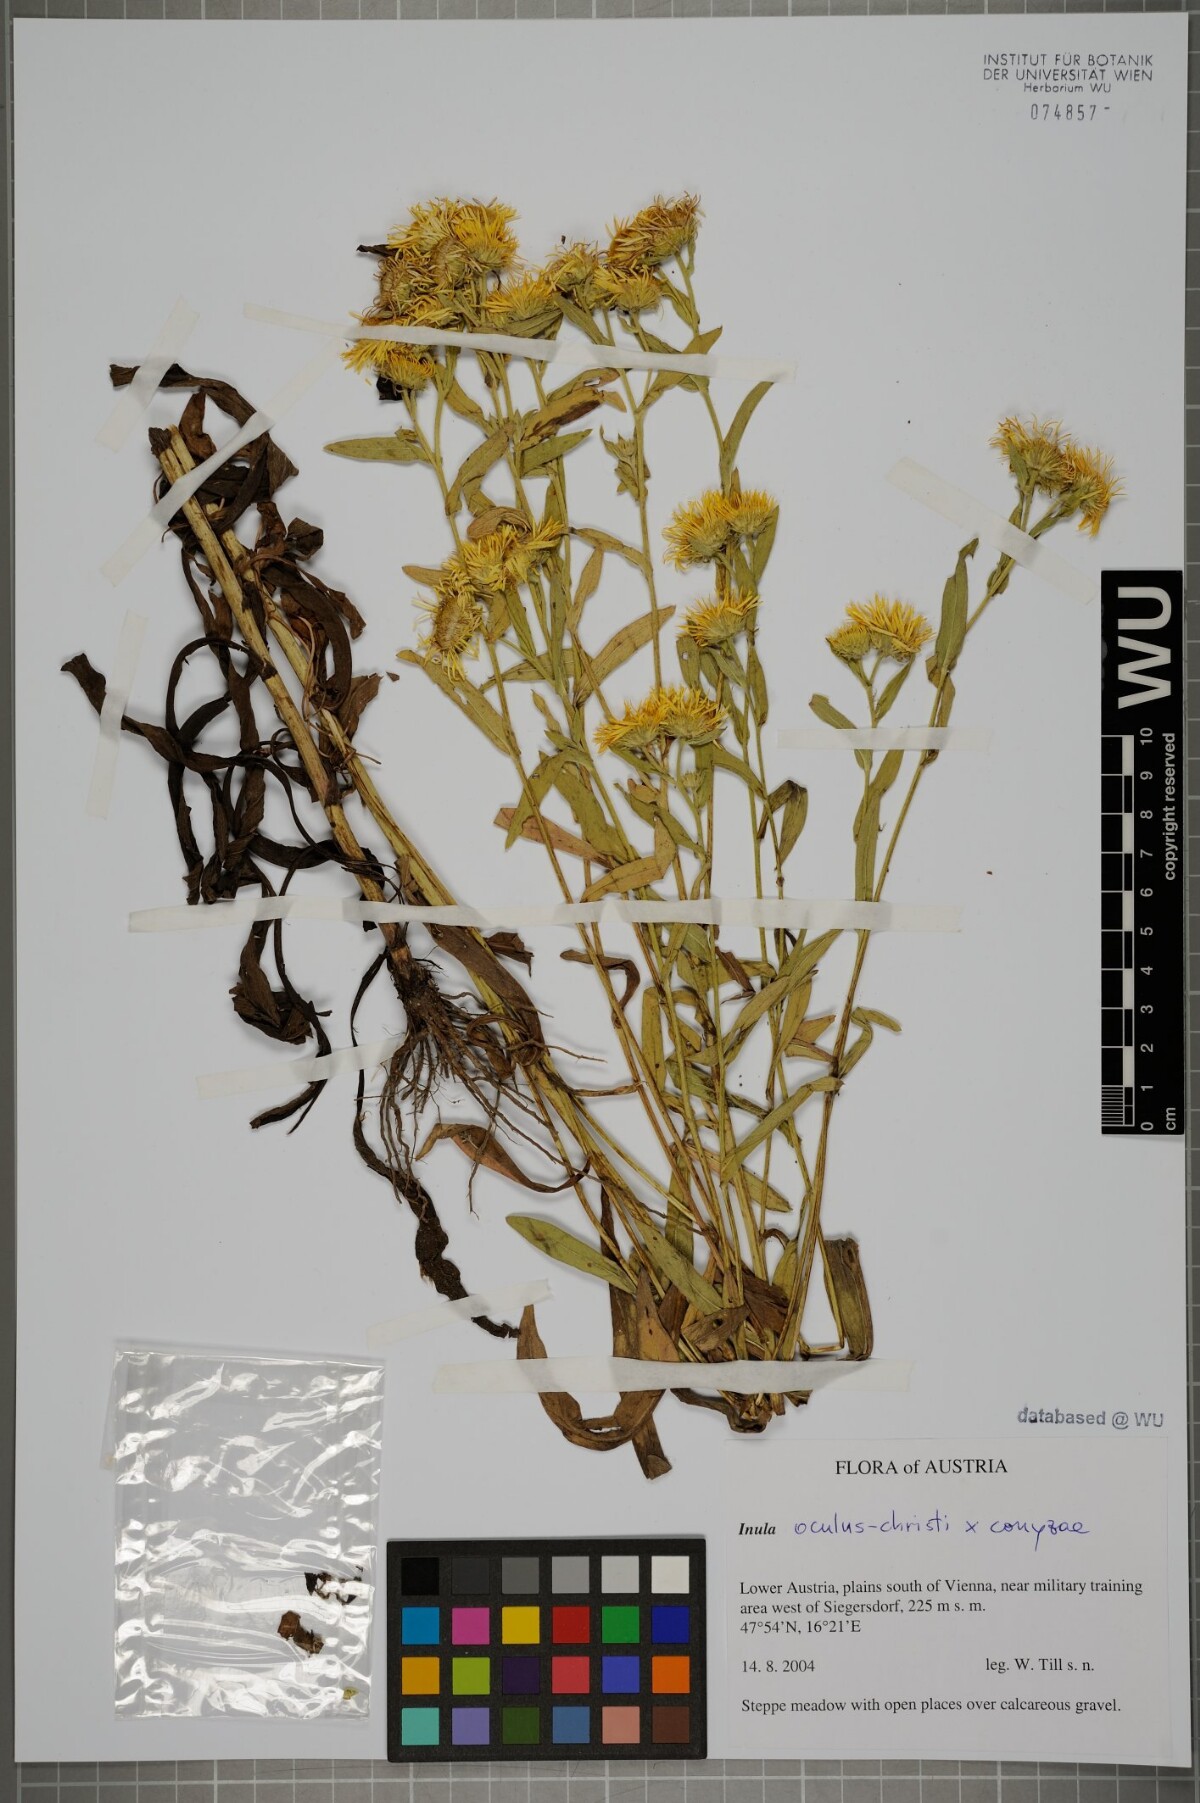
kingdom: Plantae
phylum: Tracheophyta
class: Magnoliopsida
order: Asterales
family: Asteraceae
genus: Pentanema
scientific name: Pentanema britannicum
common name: British elecampane
